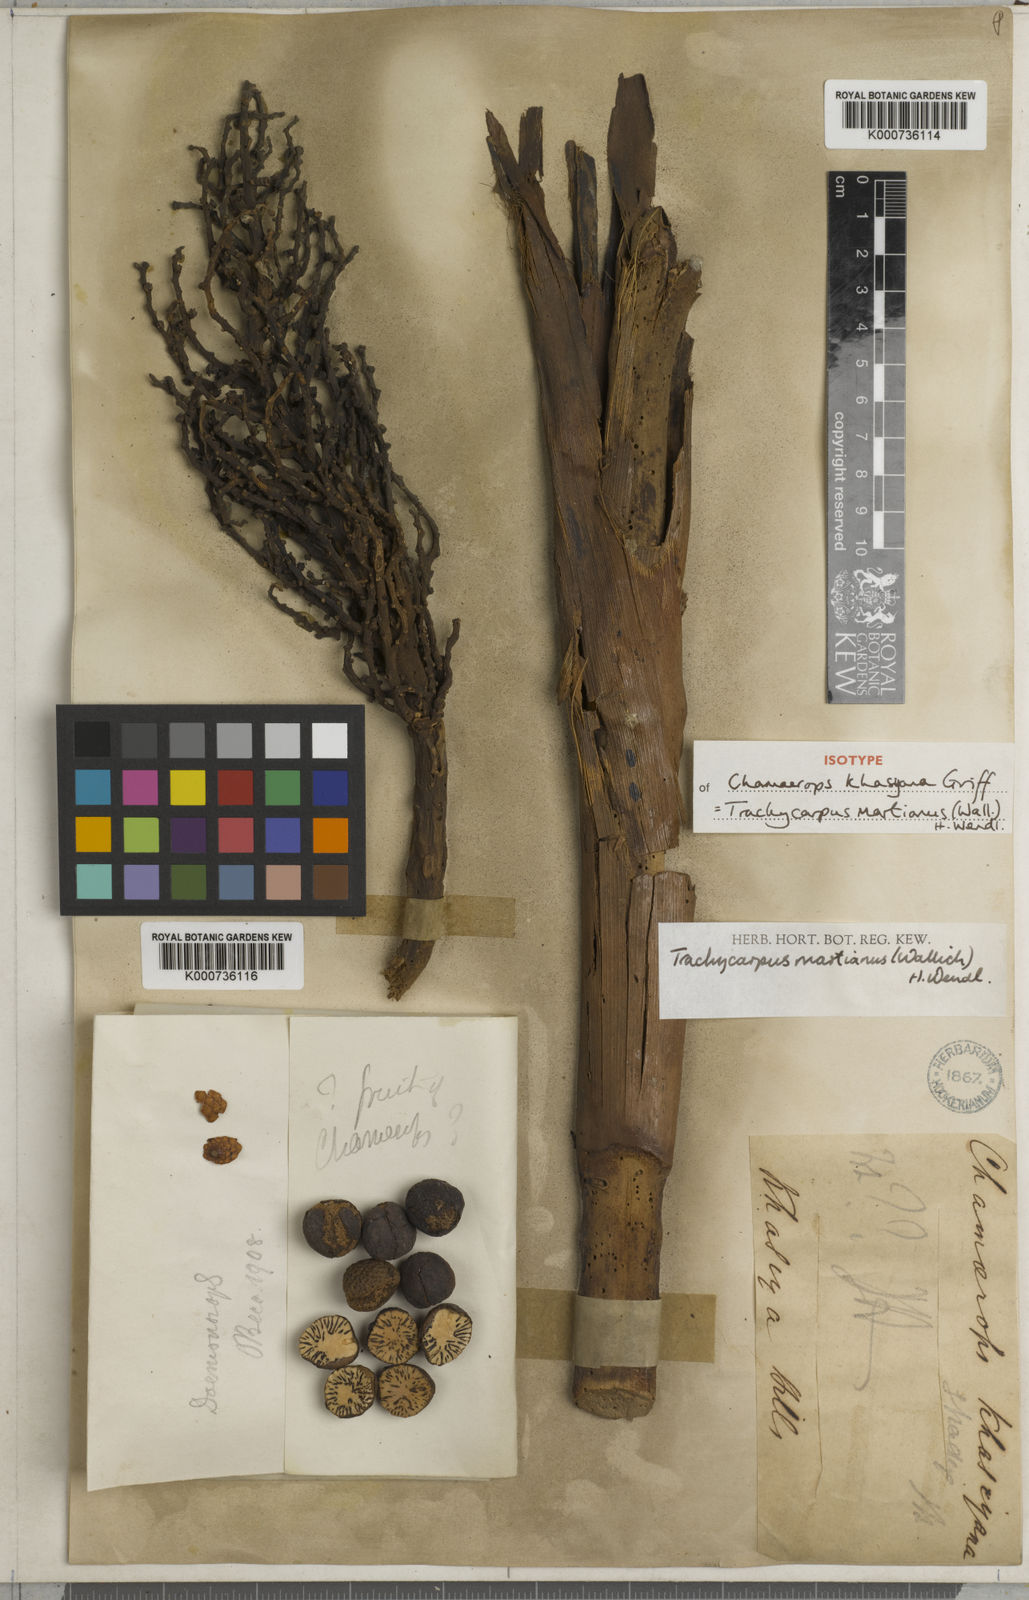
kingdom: Plantae
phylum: Tracheophyta
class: Liliopsida
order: Arecales
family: Arecaceae
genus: Trachycarpus
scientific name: Trachycarpus martianus
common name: Martius's windmill palm
